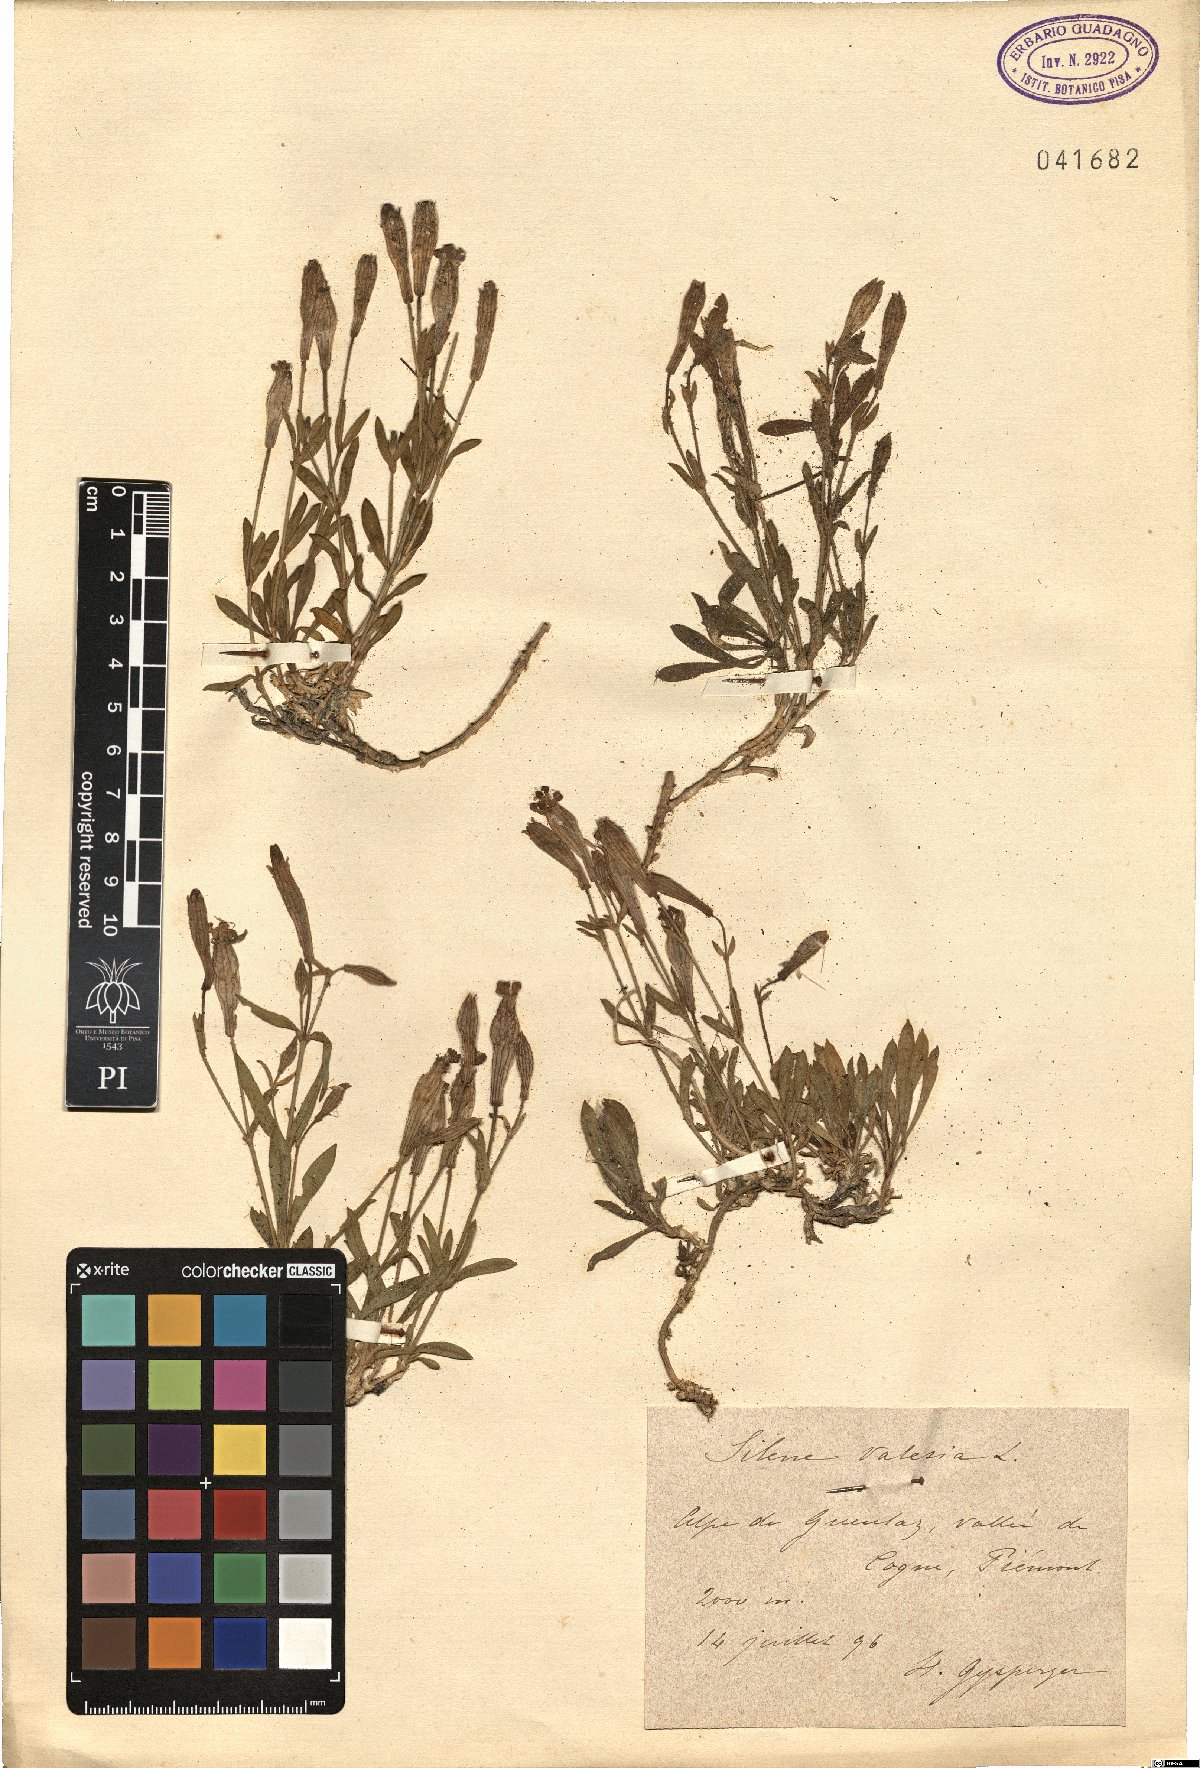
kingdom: Plantae
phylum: Tracheophyta
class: Magnoliopsida
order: Caryophyllales
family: Caryophyllaceae
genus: Silene
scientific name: Silene vallesia
